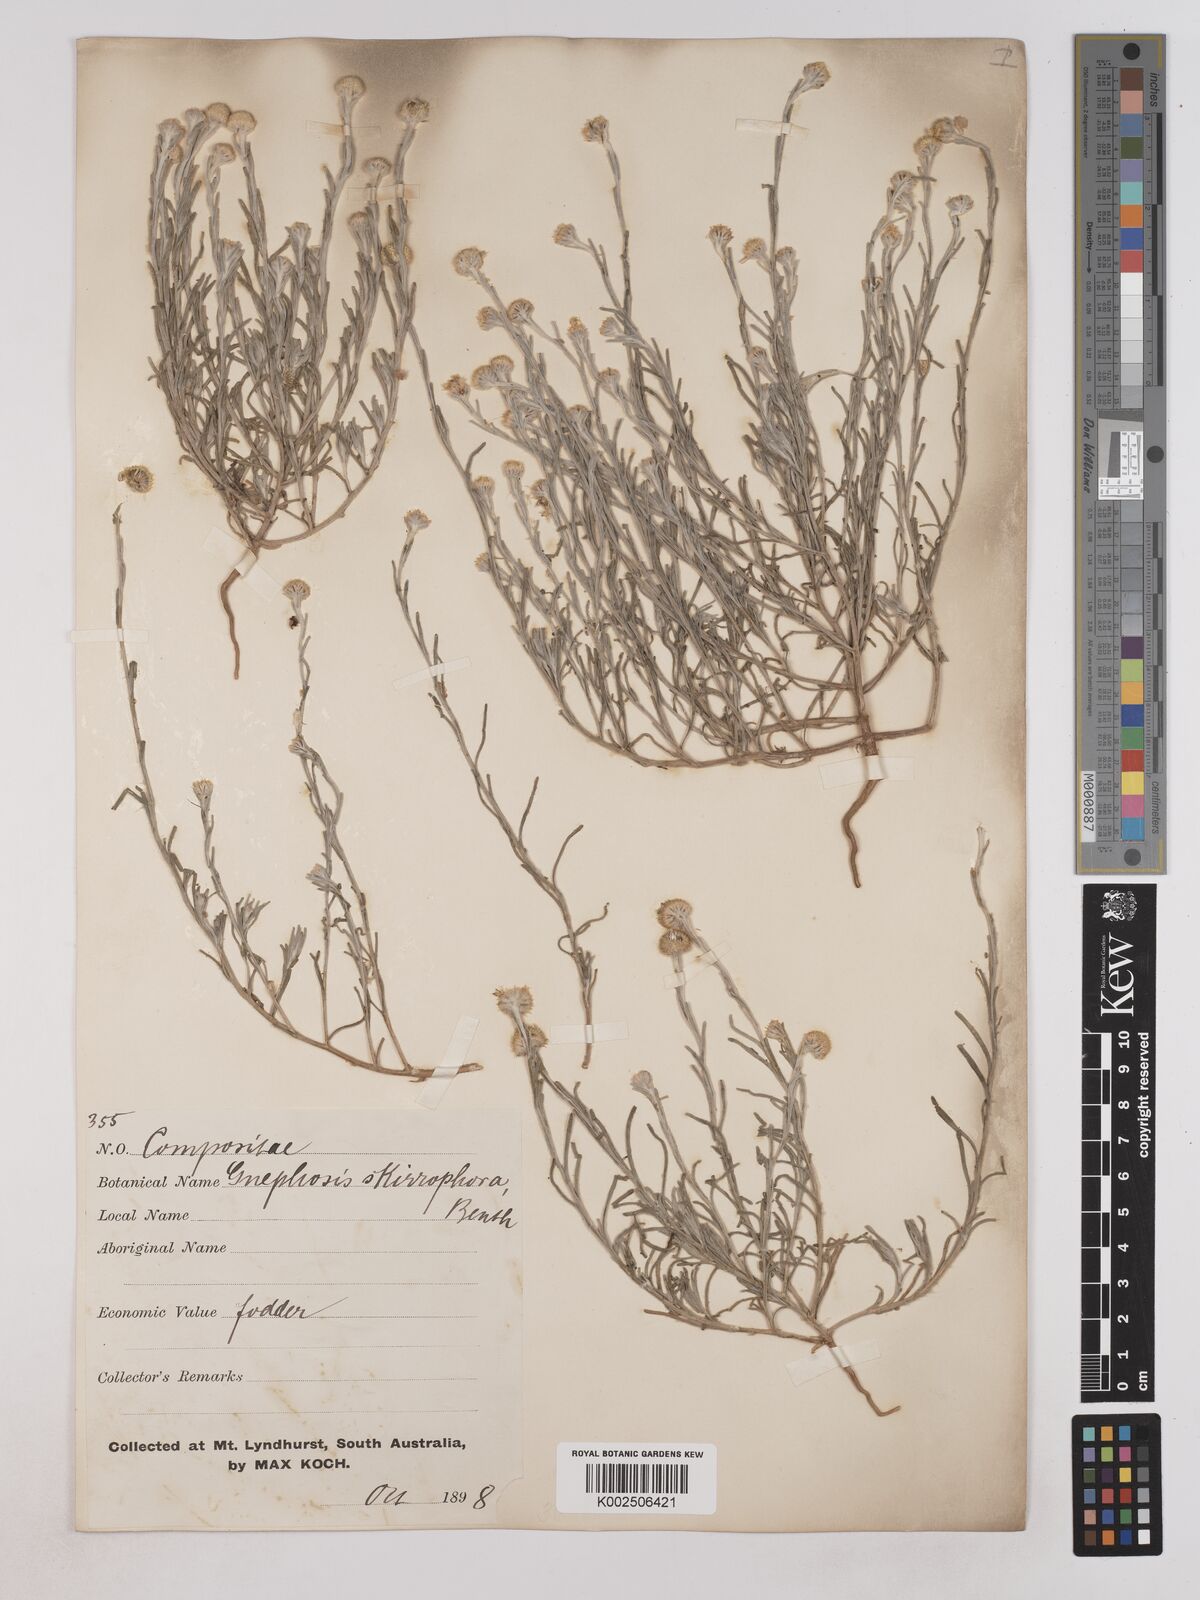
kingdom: Plantae
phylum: Tracheophyta
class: Magnoliopsida
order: Asterales
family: Asteraceae
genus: Trichanthodium
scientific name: Trichanthodium skirrophorum
